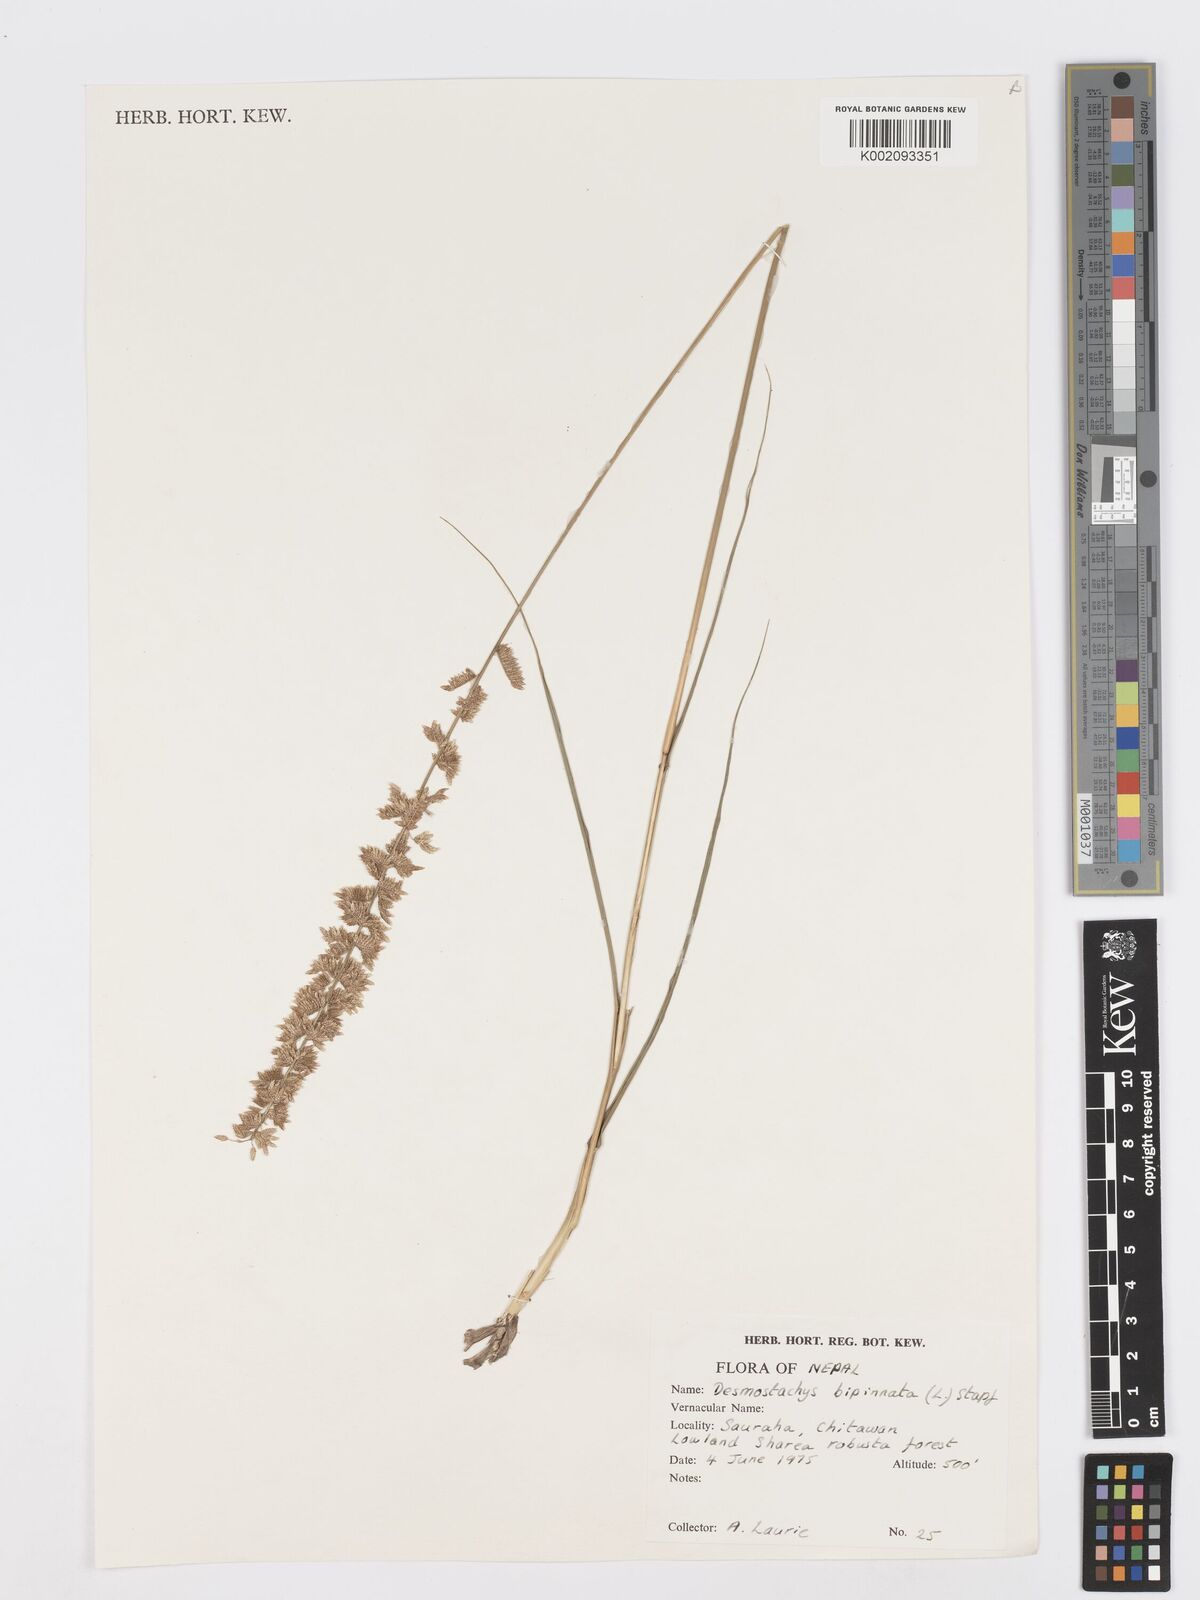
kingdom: Plantae
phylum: Tracheophyta
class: Liliopsida
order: Poales
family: Poaceae
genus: Desmostachya
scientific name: Desmostachya bipinnata
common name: Crowfoot grass
